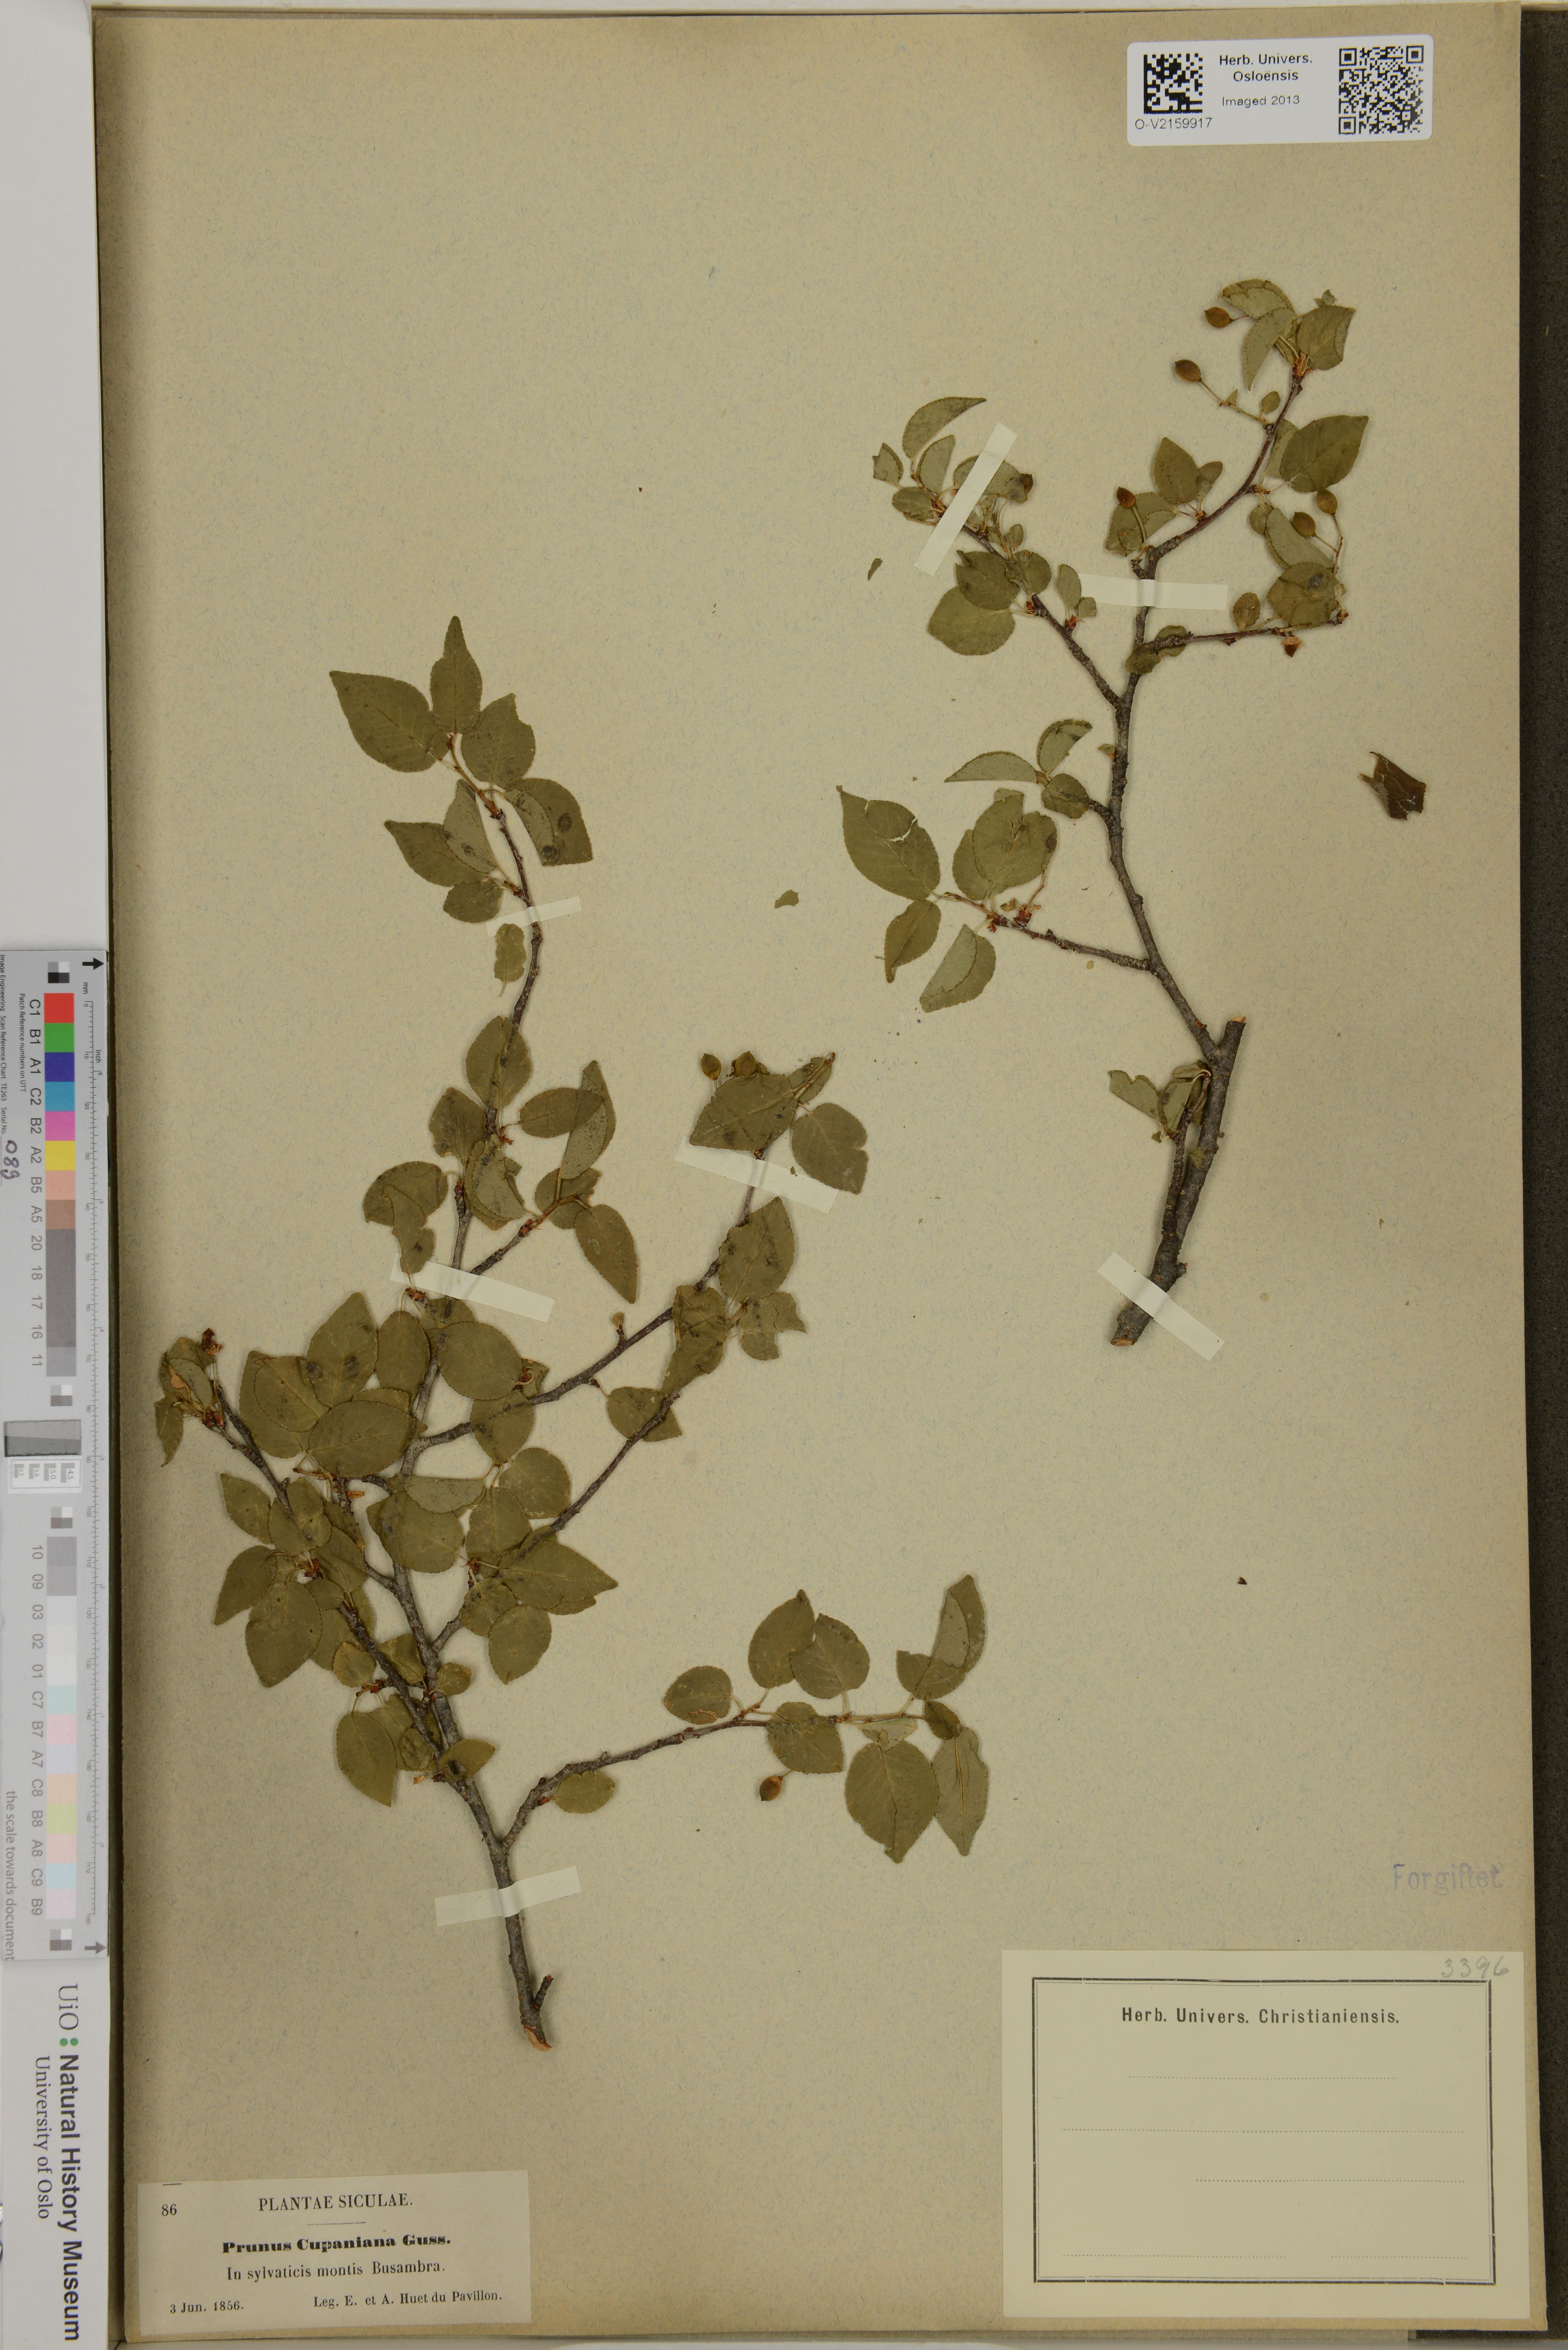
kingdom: Plantae
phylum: Tracheophyta
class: Magnoliopsida
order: Rosales
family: Rosaceae
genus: Prunus
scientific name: Prunus mahaleb
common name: Mahaleb cherry
